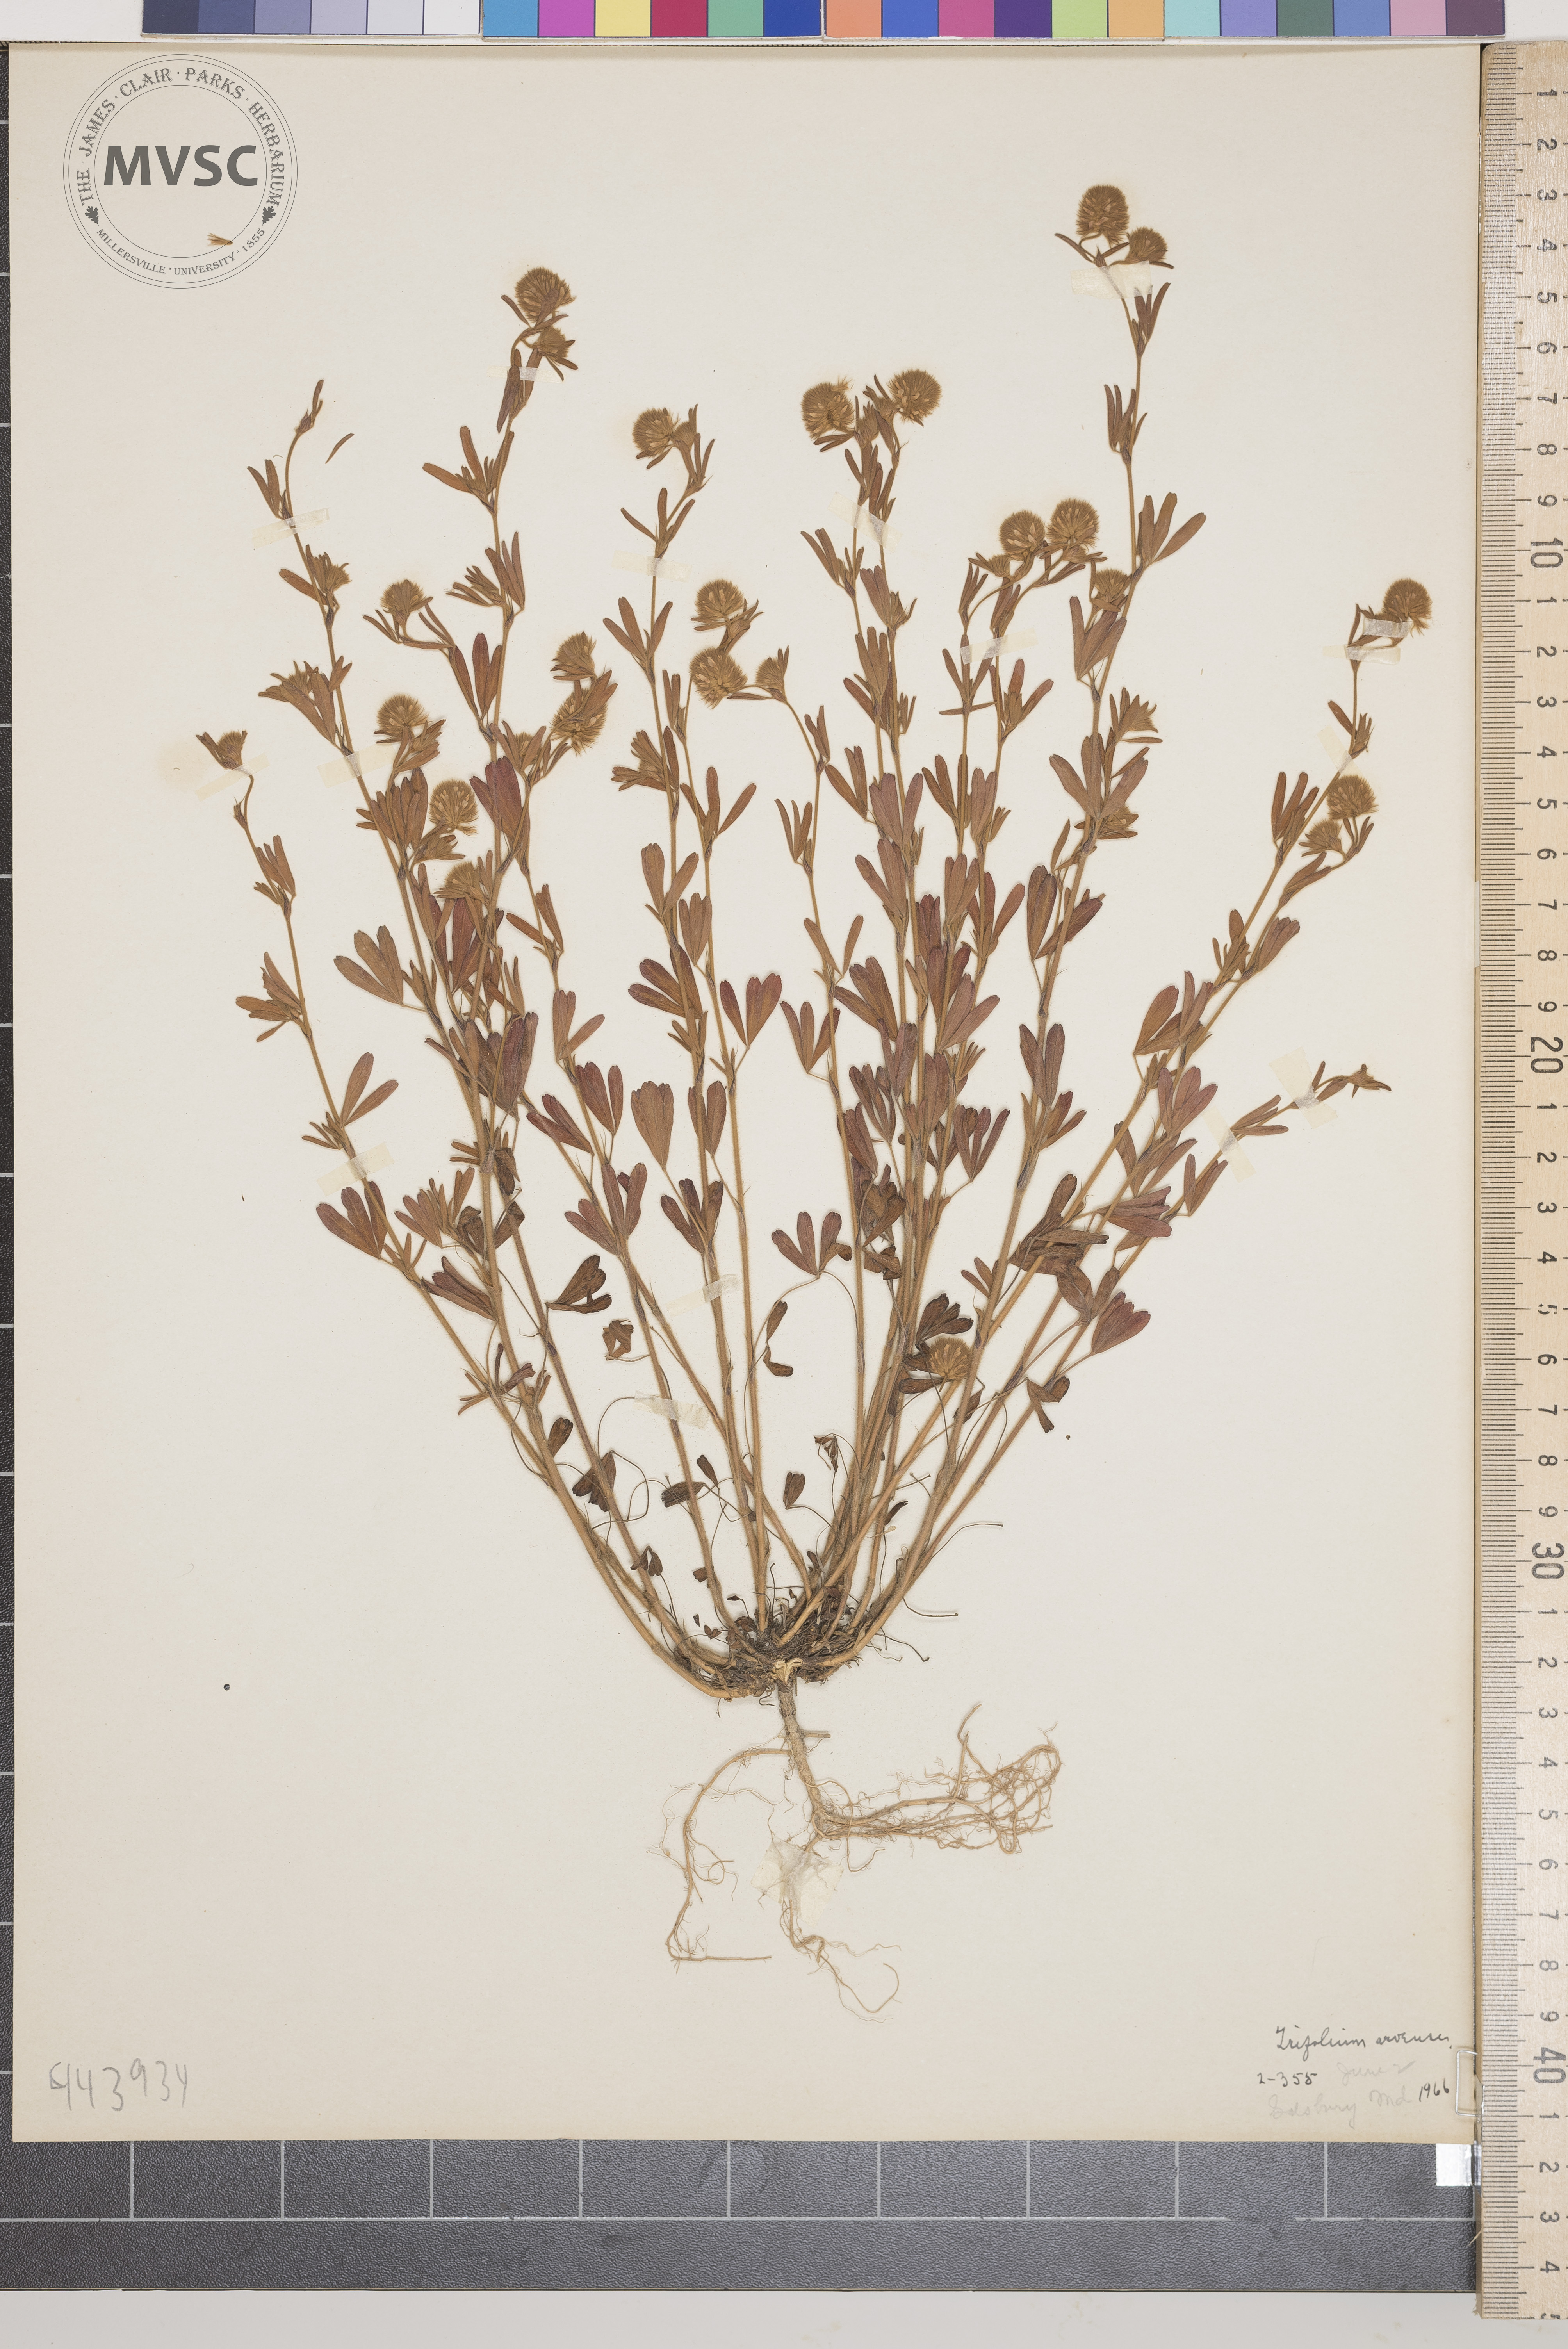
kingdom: Plantae
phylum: Tracheophyta
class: Magnoliopsida
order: Fabales
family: Fabaceae
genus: Trifolium
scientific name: Trifolium arvense
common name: Hare's-foot clover
